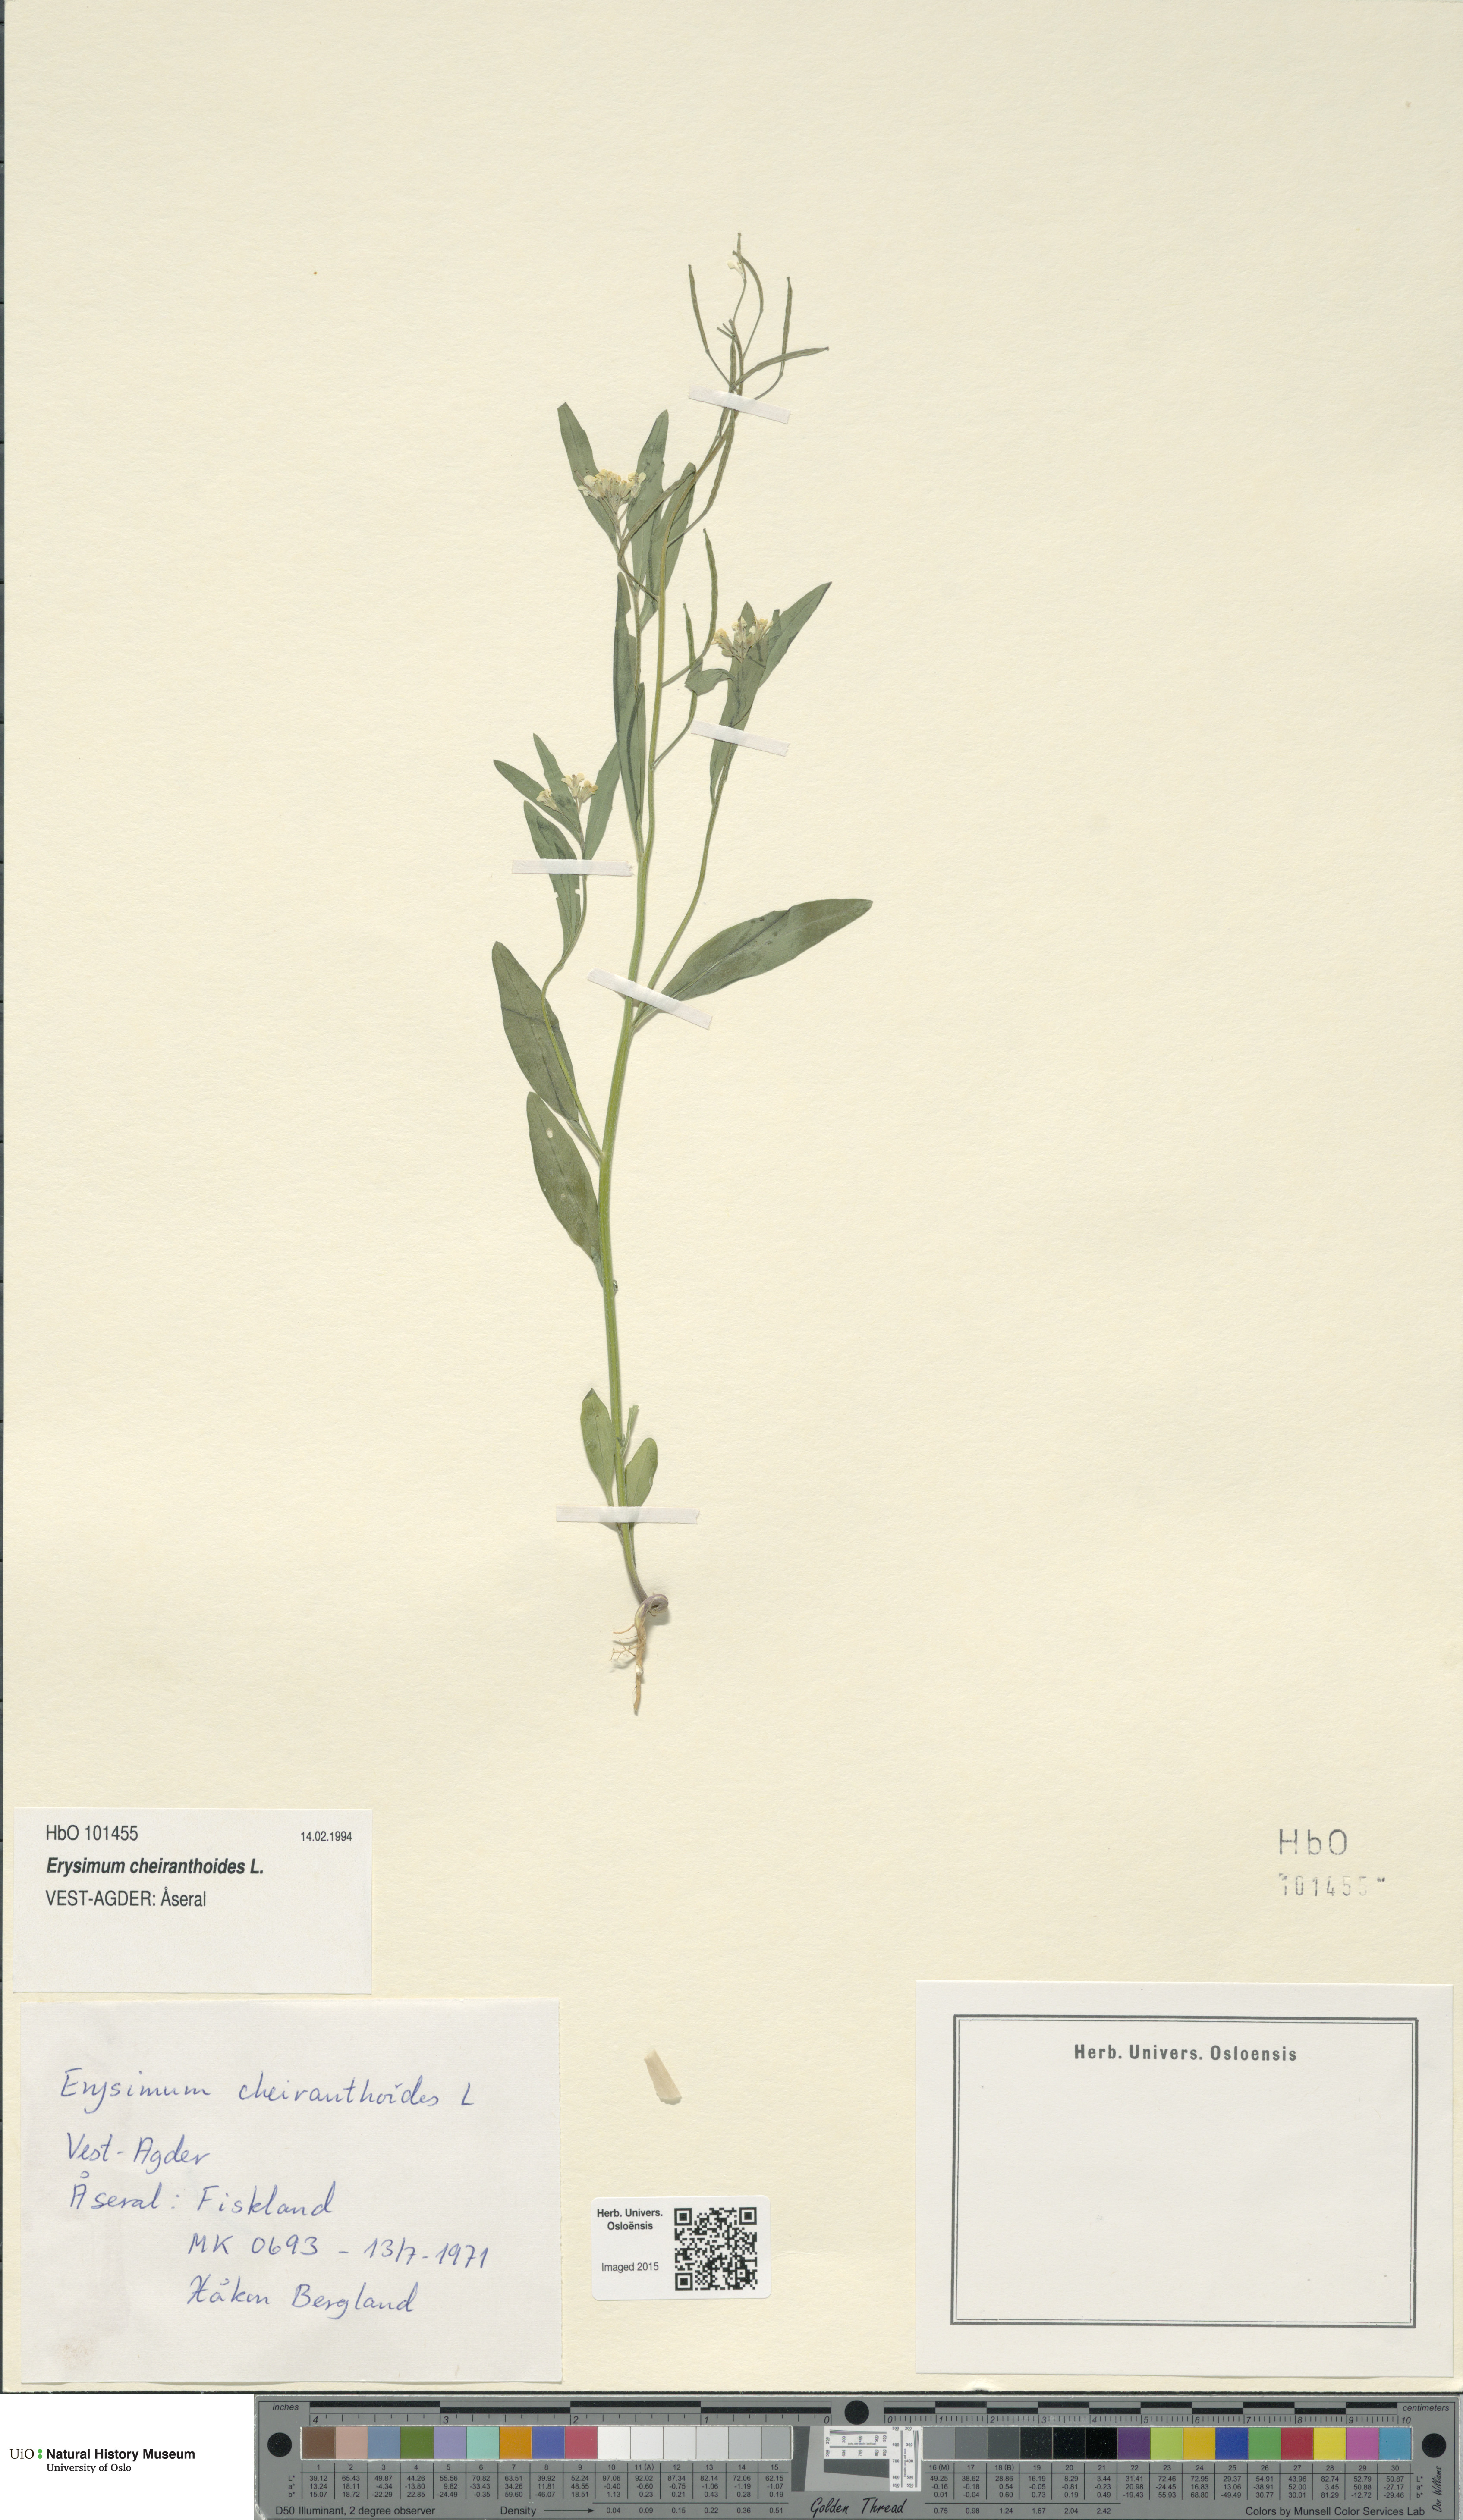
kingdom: Plantae
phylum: Tracheophyta
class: Magnoliopsida
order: Brassicales
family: Brassicaceae
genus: Erysimum
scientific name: Erysimum cheiranthoides
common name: Treacle mustard
